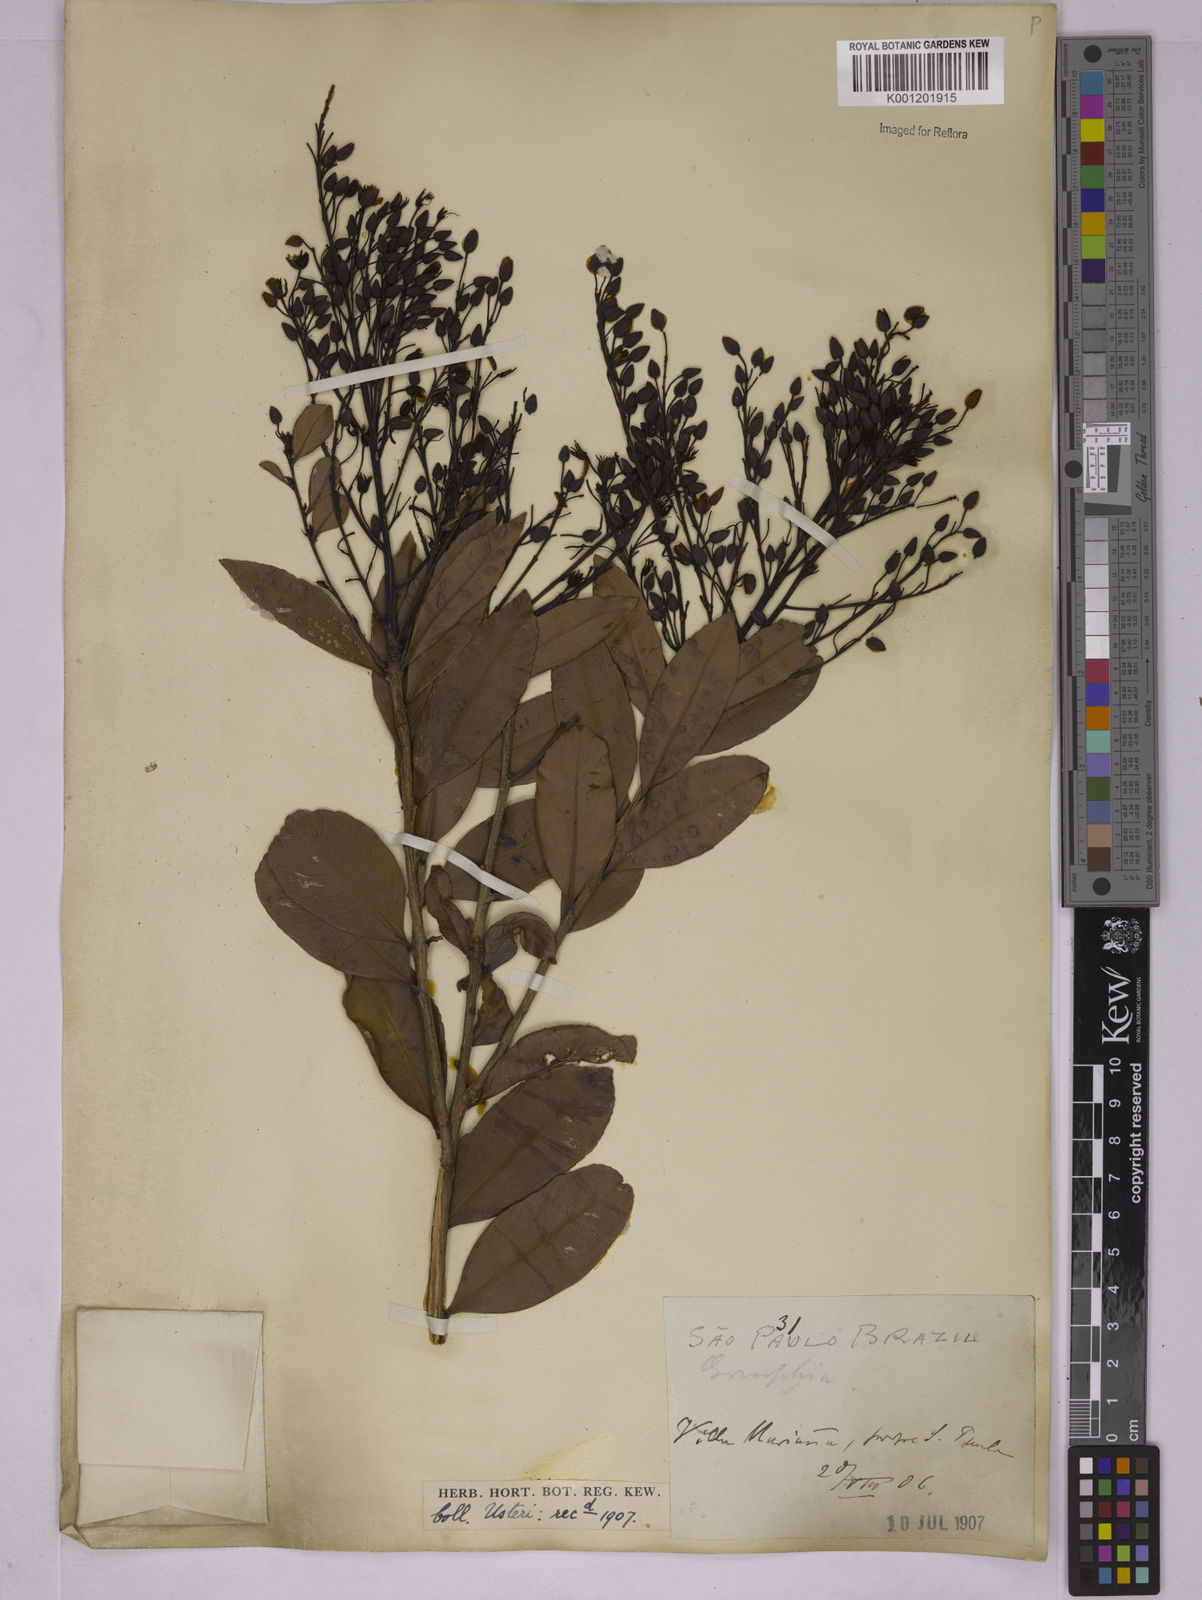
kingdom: Plantae
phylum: Tracheophyta
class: Magnoliopsida
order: Malpighiales
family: Ochnaceae
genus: Ouratea
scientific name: Ouratea floribunda
